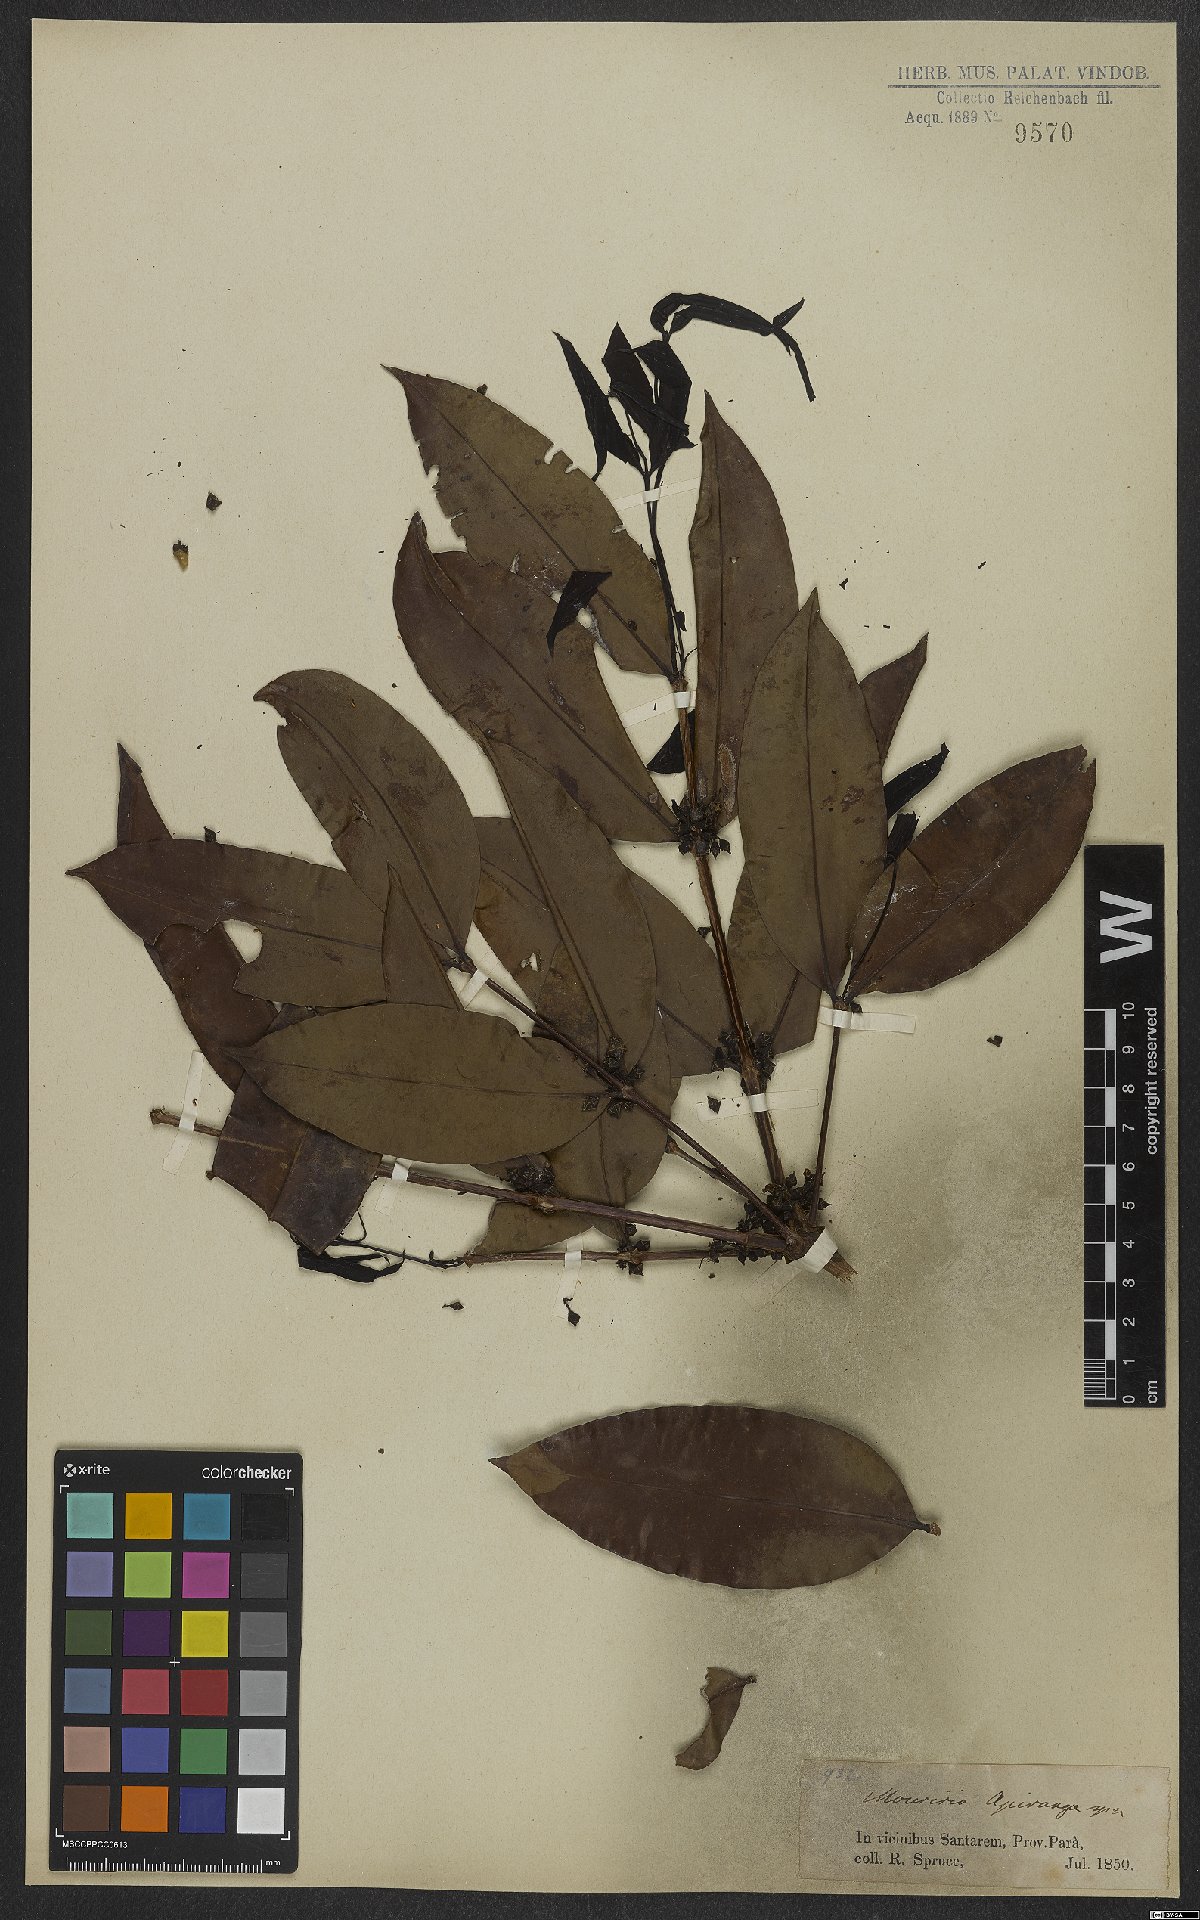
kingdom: Plantae
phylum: Tracheophyta
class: Magnoliopsida
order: Myrtales
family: Melastomataceae
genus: Mouriri
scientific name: Mouriri apiranga
